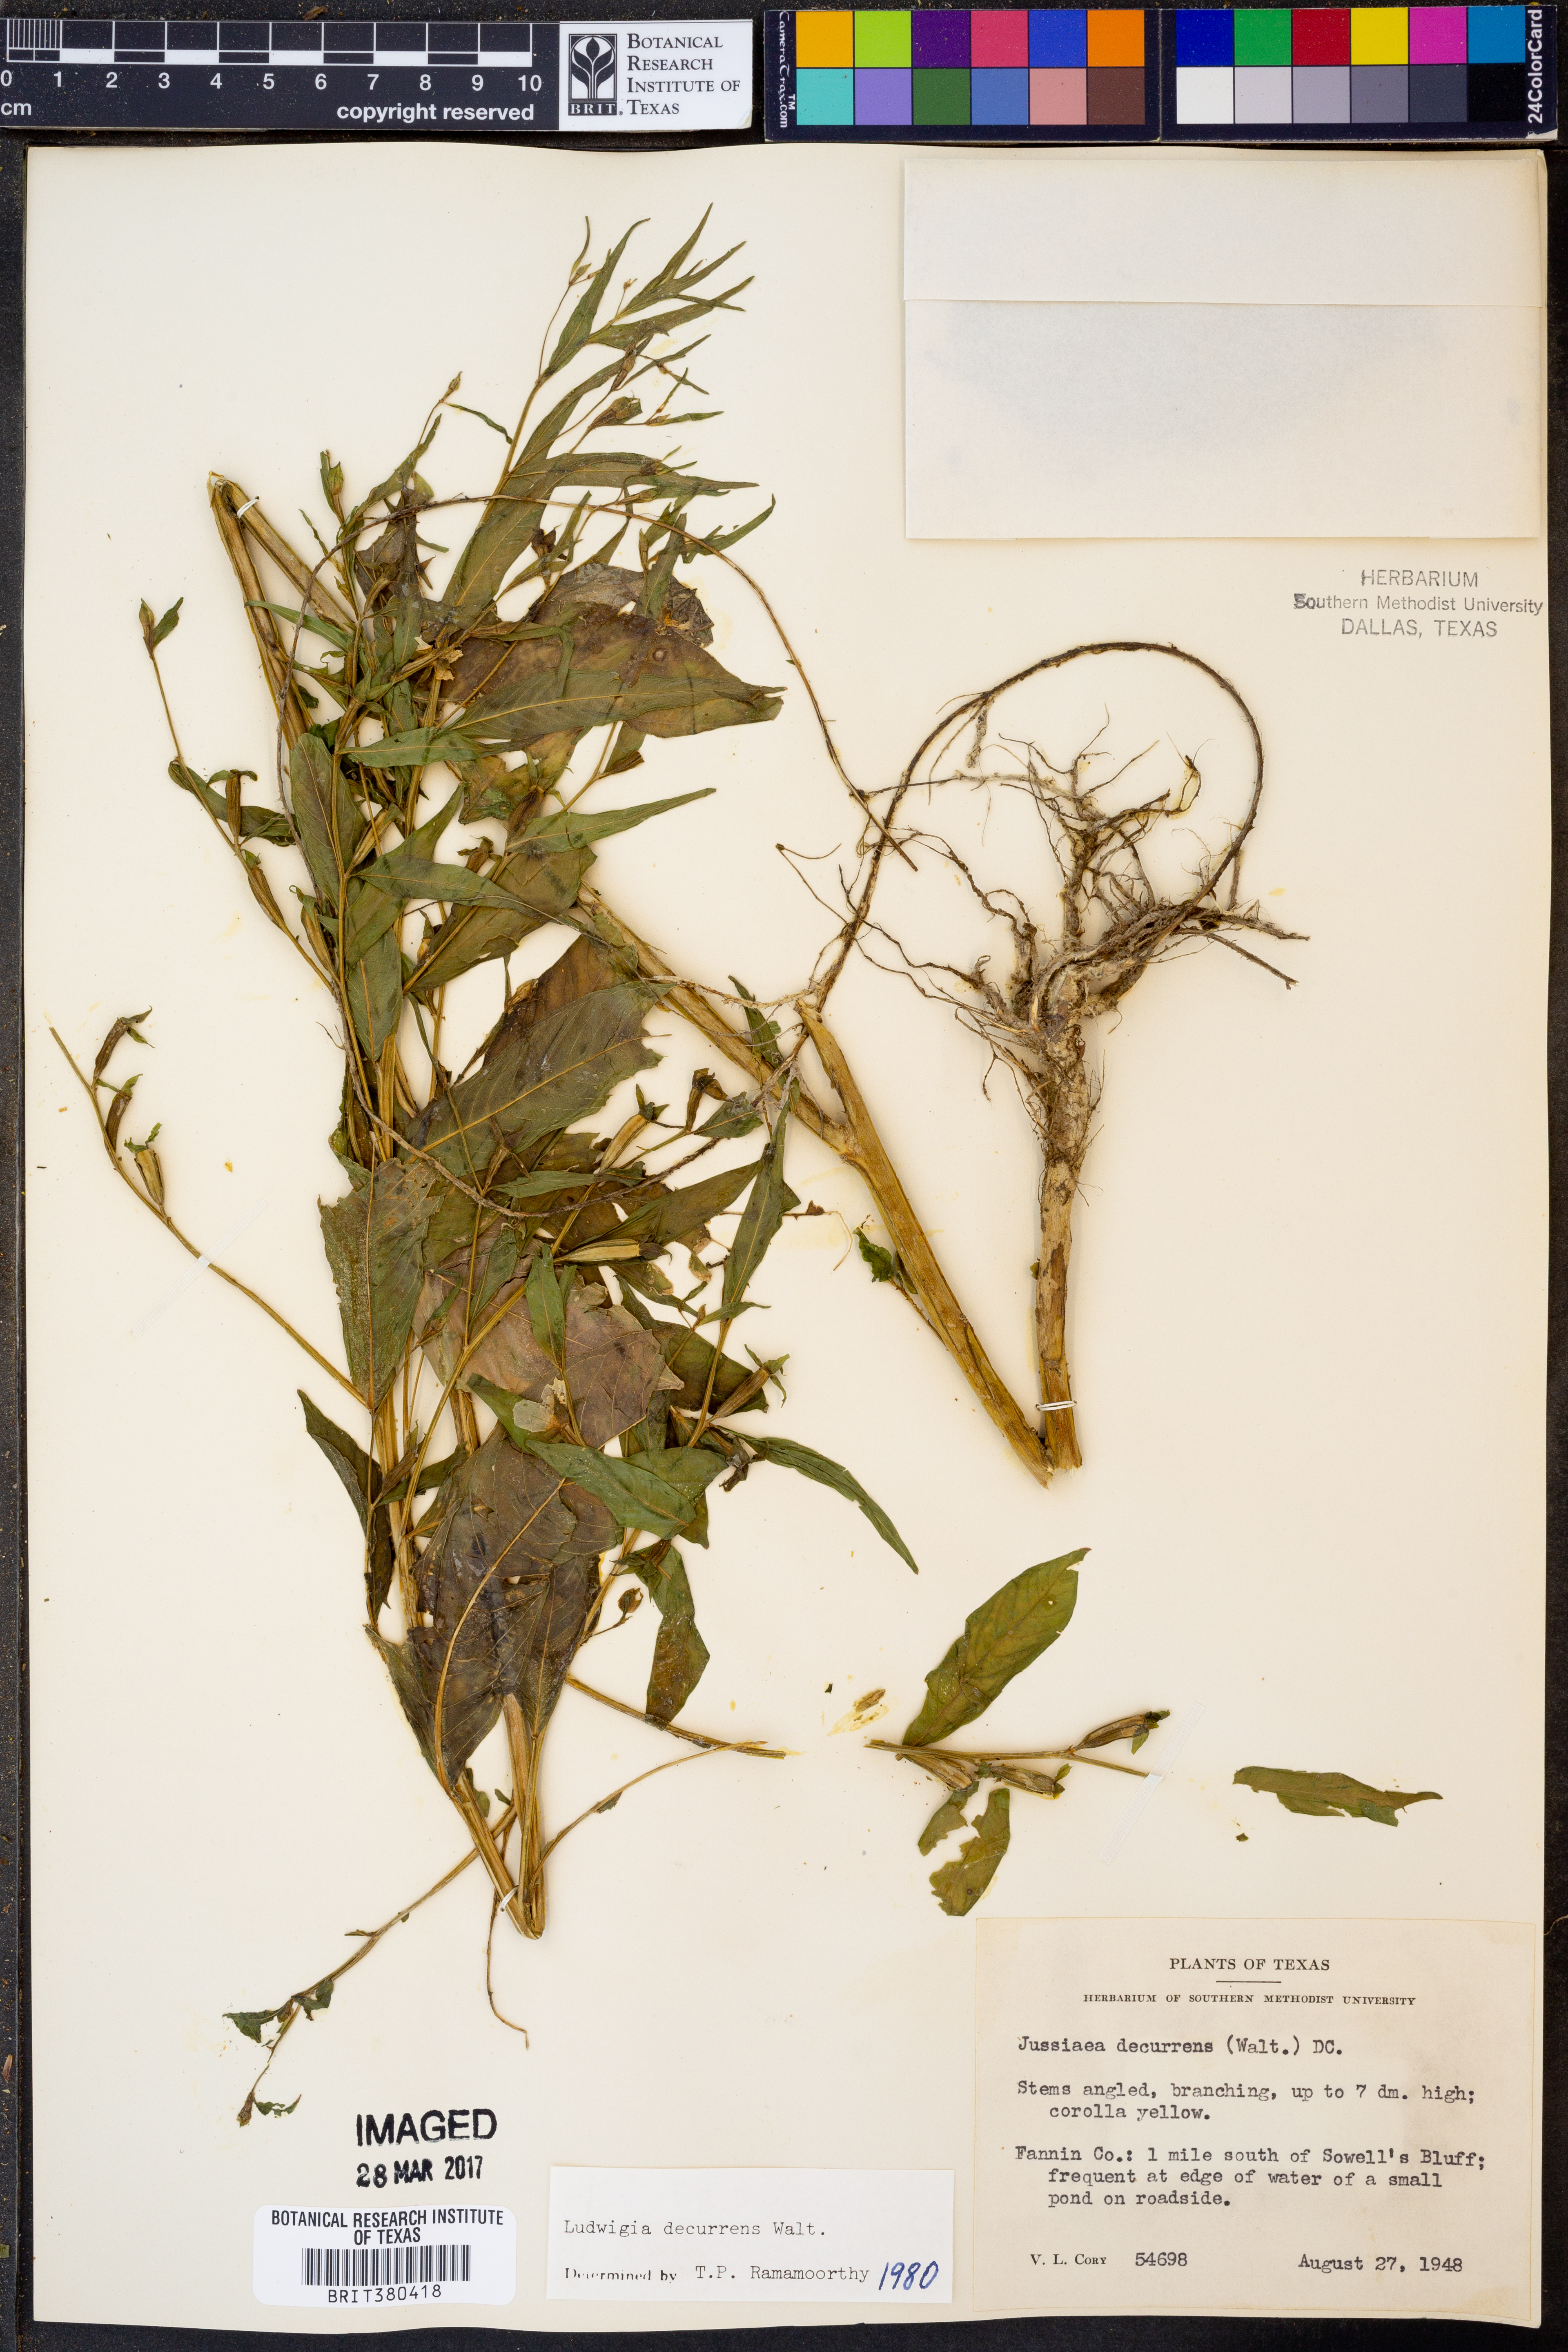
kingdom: Plantae
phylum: Tracheophyta
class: Magnoliopsida
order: Myrtales
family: Onagraceae
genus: Ludwigia
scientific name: Ludwigia decurrens
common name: Winged water-primrose
